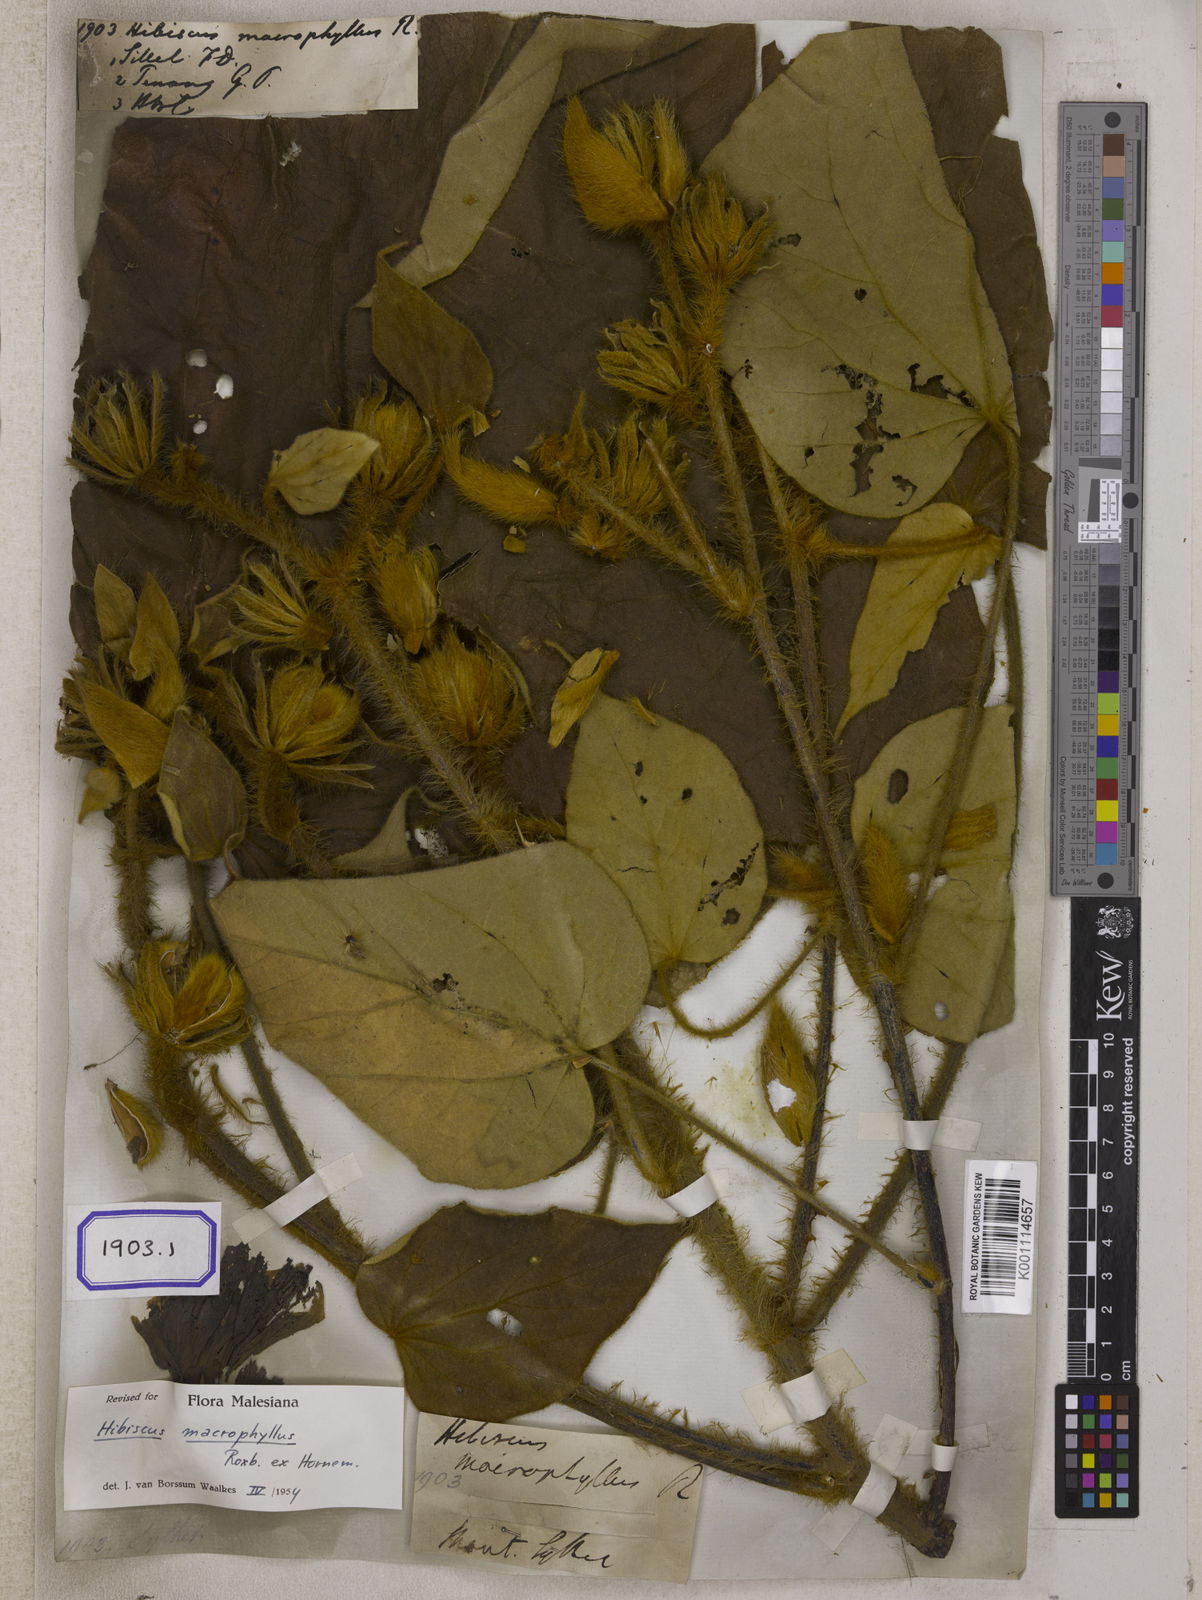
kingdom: Plantae
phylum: Tracheophyta
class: Magnoliopsida
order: Malvales
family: Malvaceae
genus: Hibiscus
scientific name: Hibiscus
